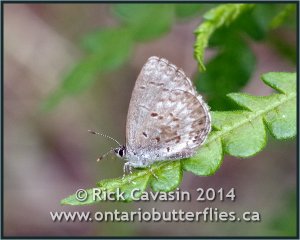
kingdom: Animalia
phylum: Arthropoda
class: Insecta
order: Lepidoptera
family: Lycaenidae
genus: Celastrina
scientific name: Celastrina lucia
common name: Northern Spring Azure
